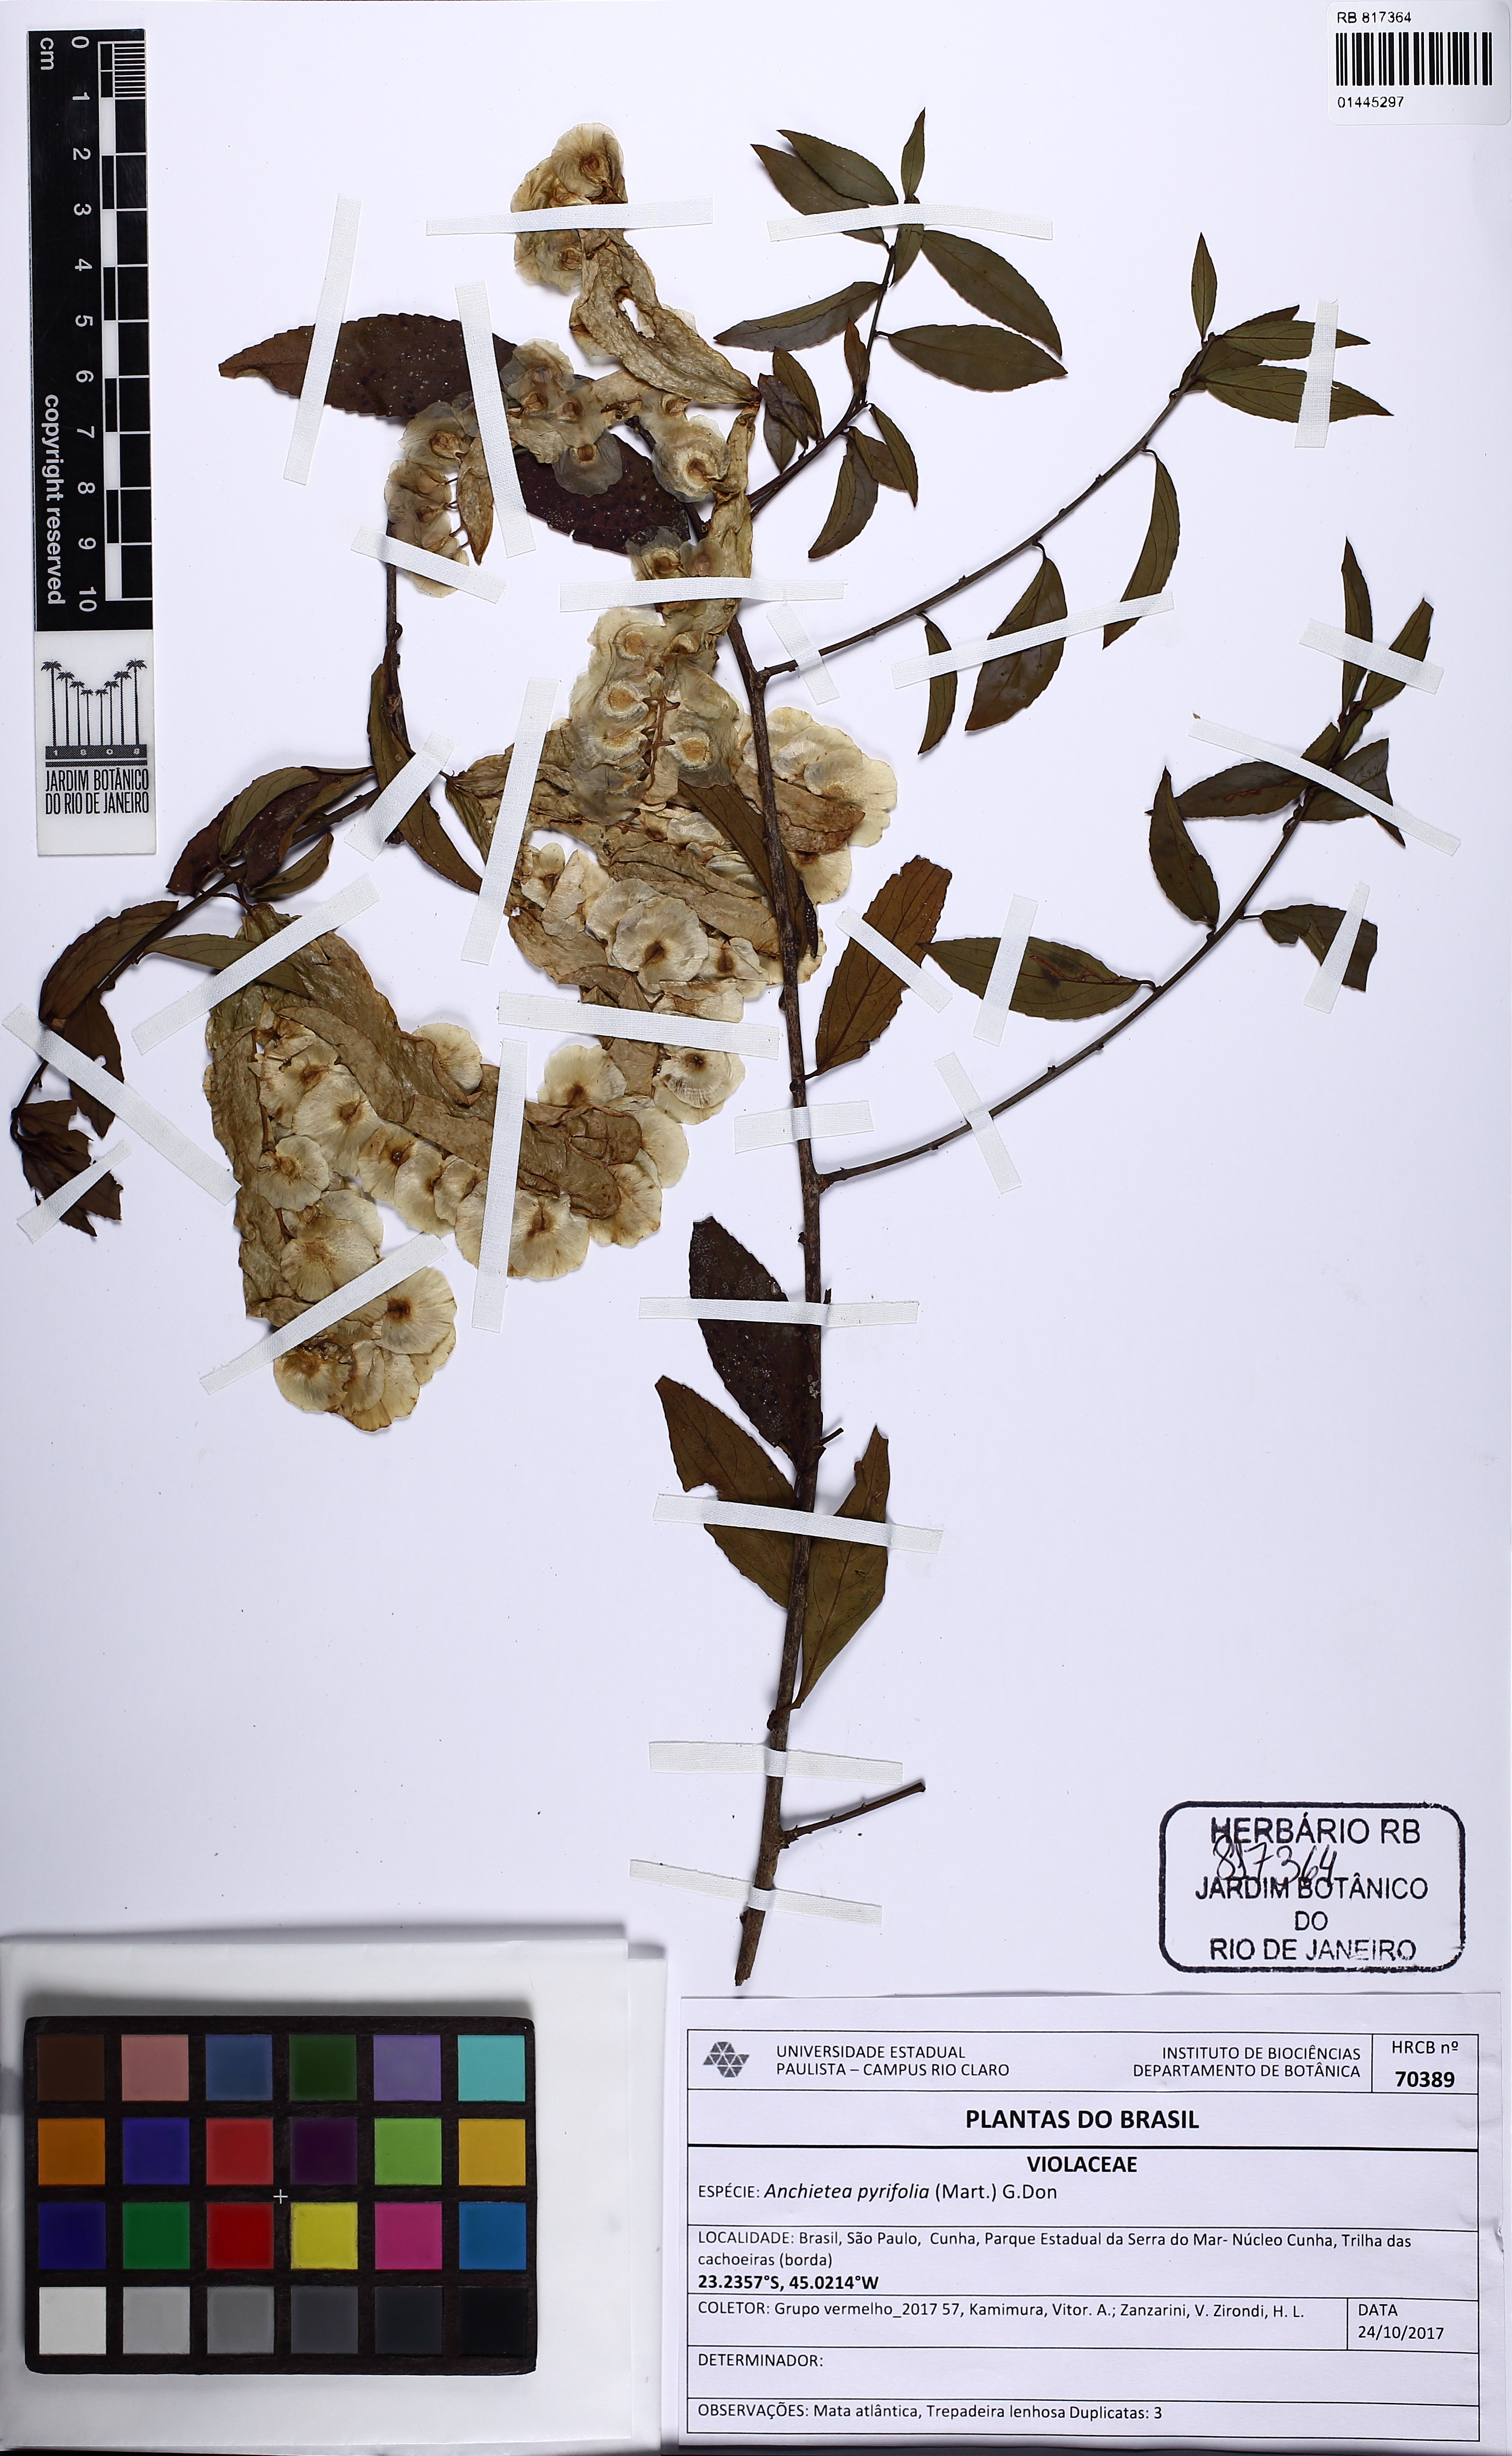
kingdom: Plantae
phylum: Tracheophyta
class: Magnoliopsida
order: Malpighiales
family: Violaceae
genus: Anchietea
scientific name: Anchietea pyrifolia
